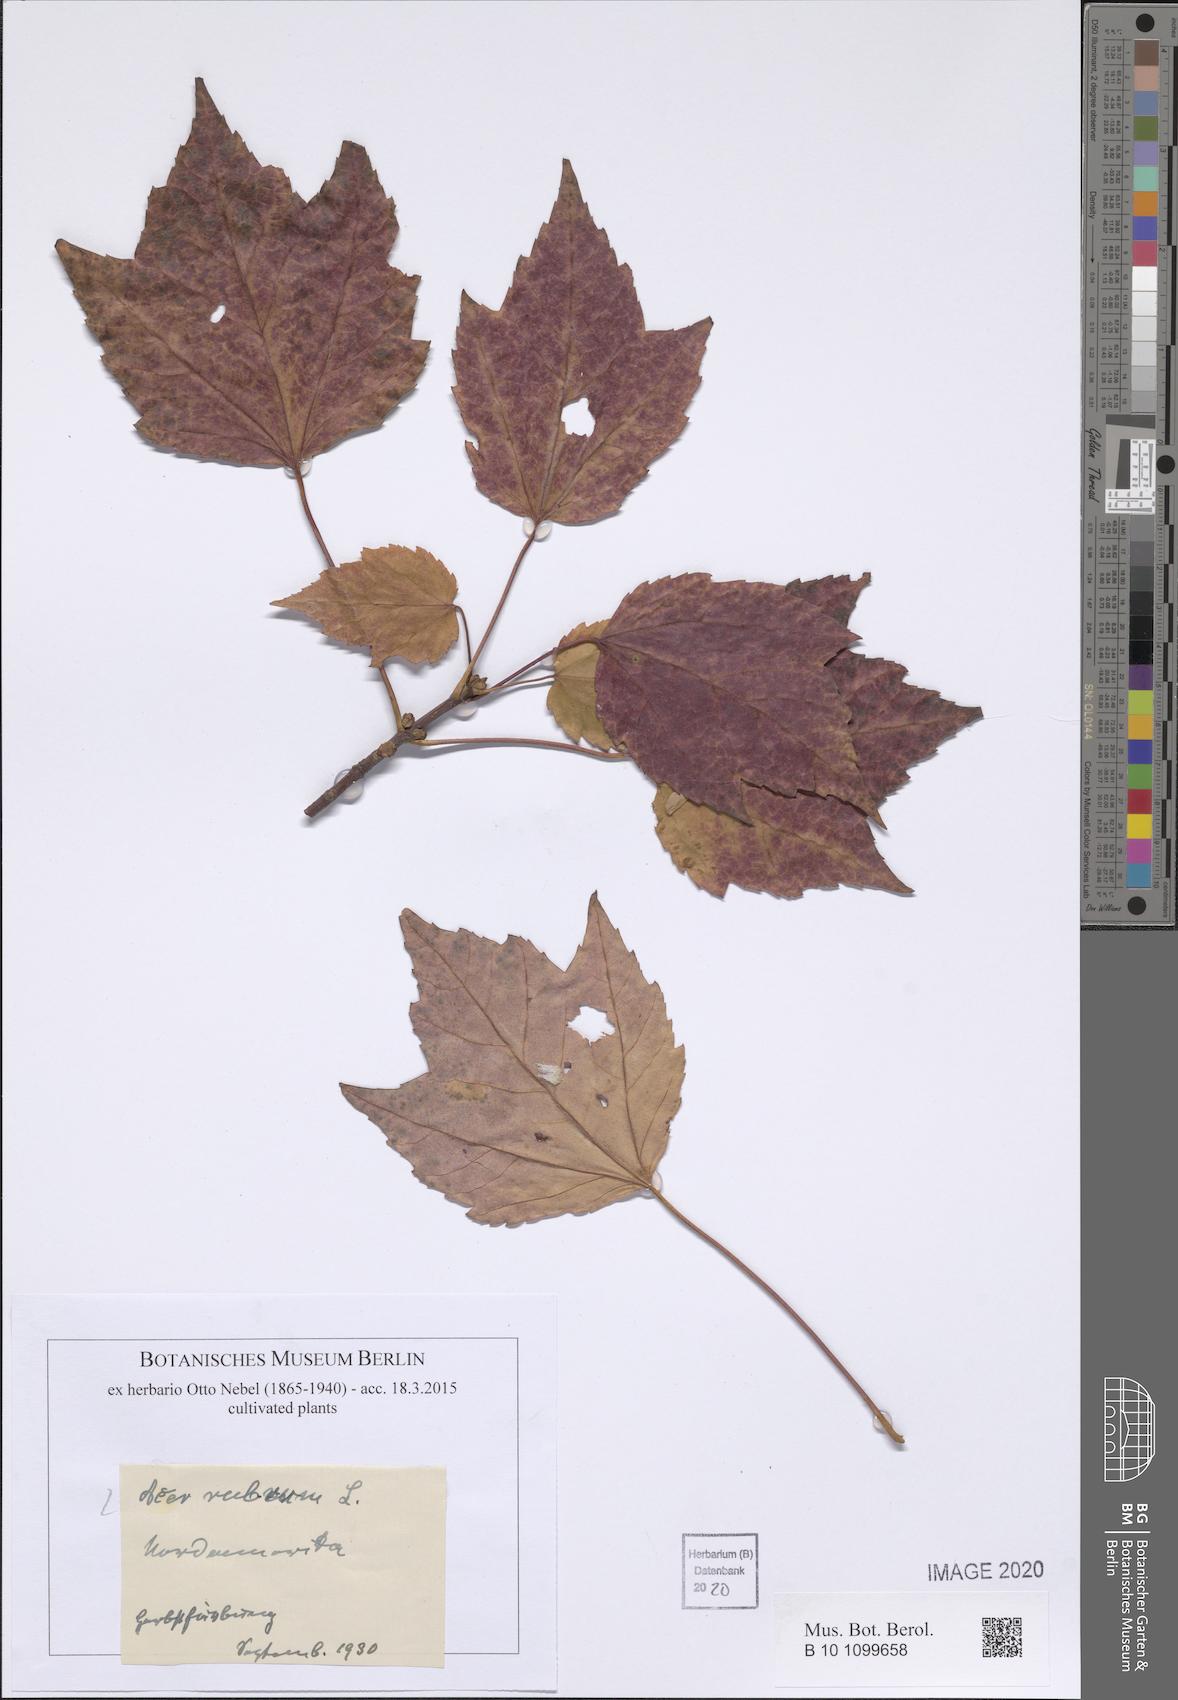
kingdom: Plantae
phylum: Tracheophyta
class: Magnoliopsida
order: Sapindales
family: Sapindaceae
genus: Acer
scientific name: Acer rubrum
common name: Red maple
